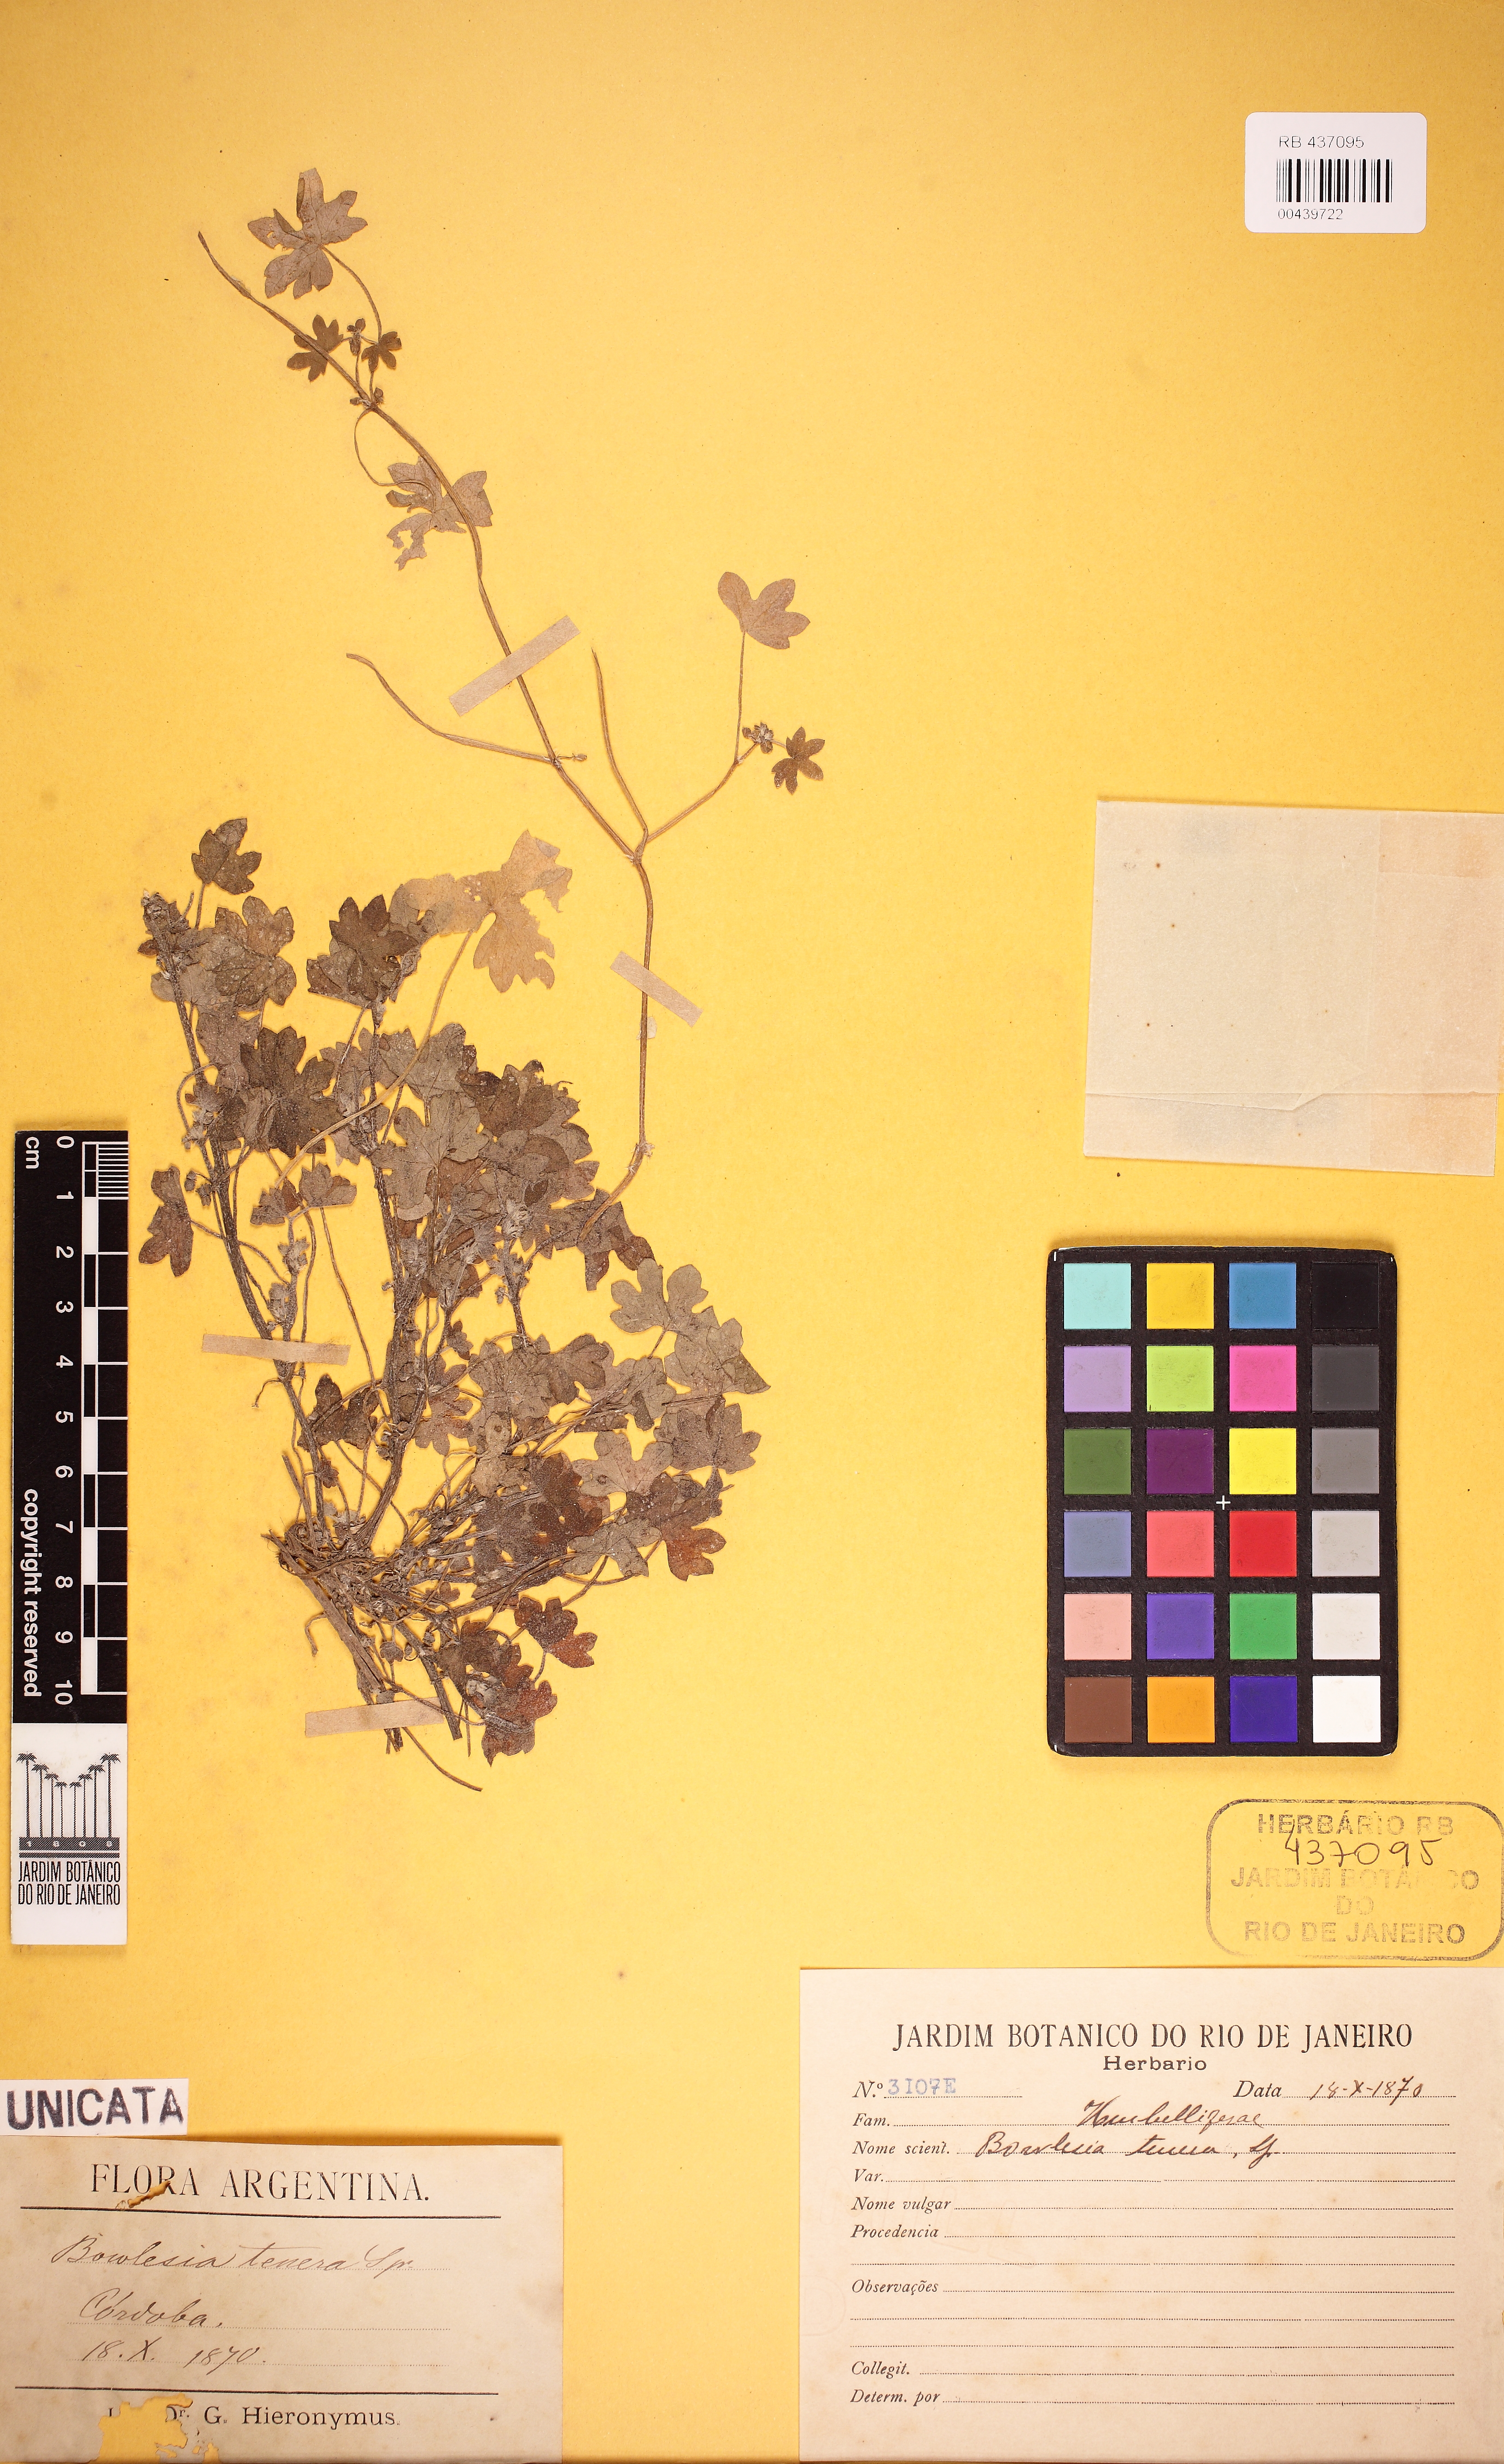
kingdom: Plantae
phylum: Tracheophyta
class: Magnoliopsida
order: Apiales
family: Apiaceae
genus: Bowlesia
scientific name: Bowlesia incana
